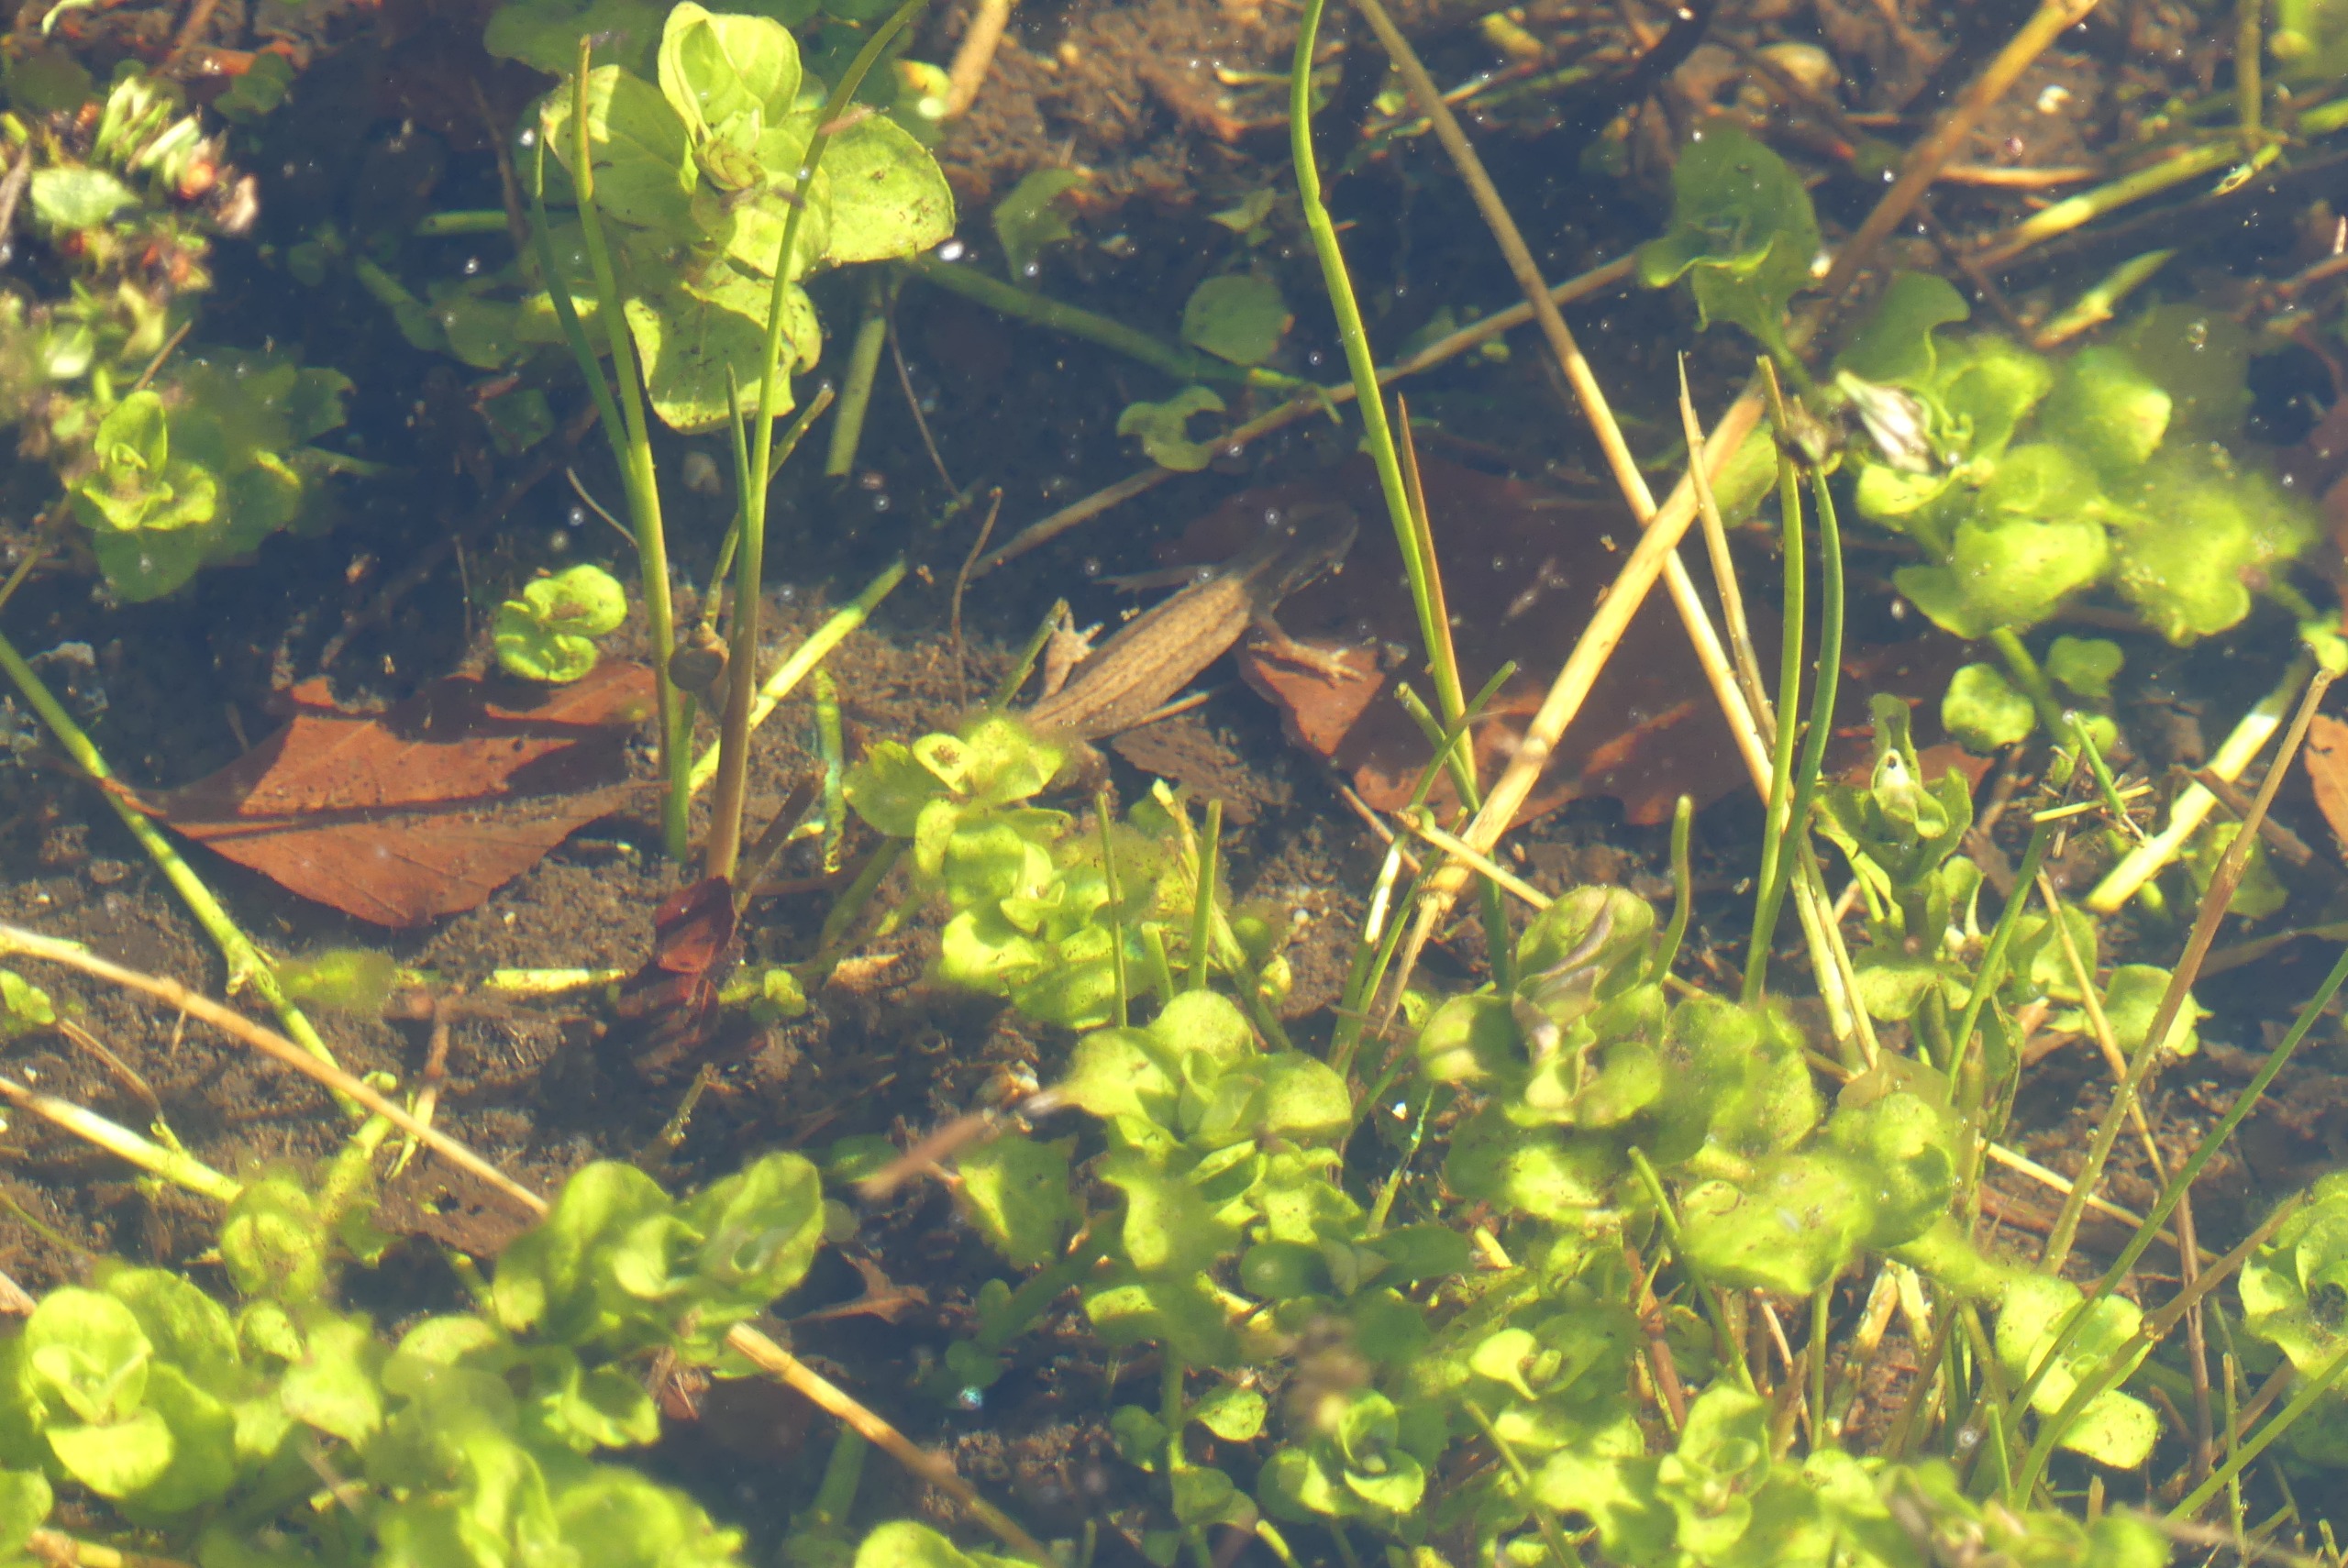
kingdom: Animalia
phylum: Chordata
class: Amphibia
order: Caudata
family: Salamandridae
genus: Lissotriton
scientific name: Lissotriton vulgaris
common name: Lille vandsalamander
